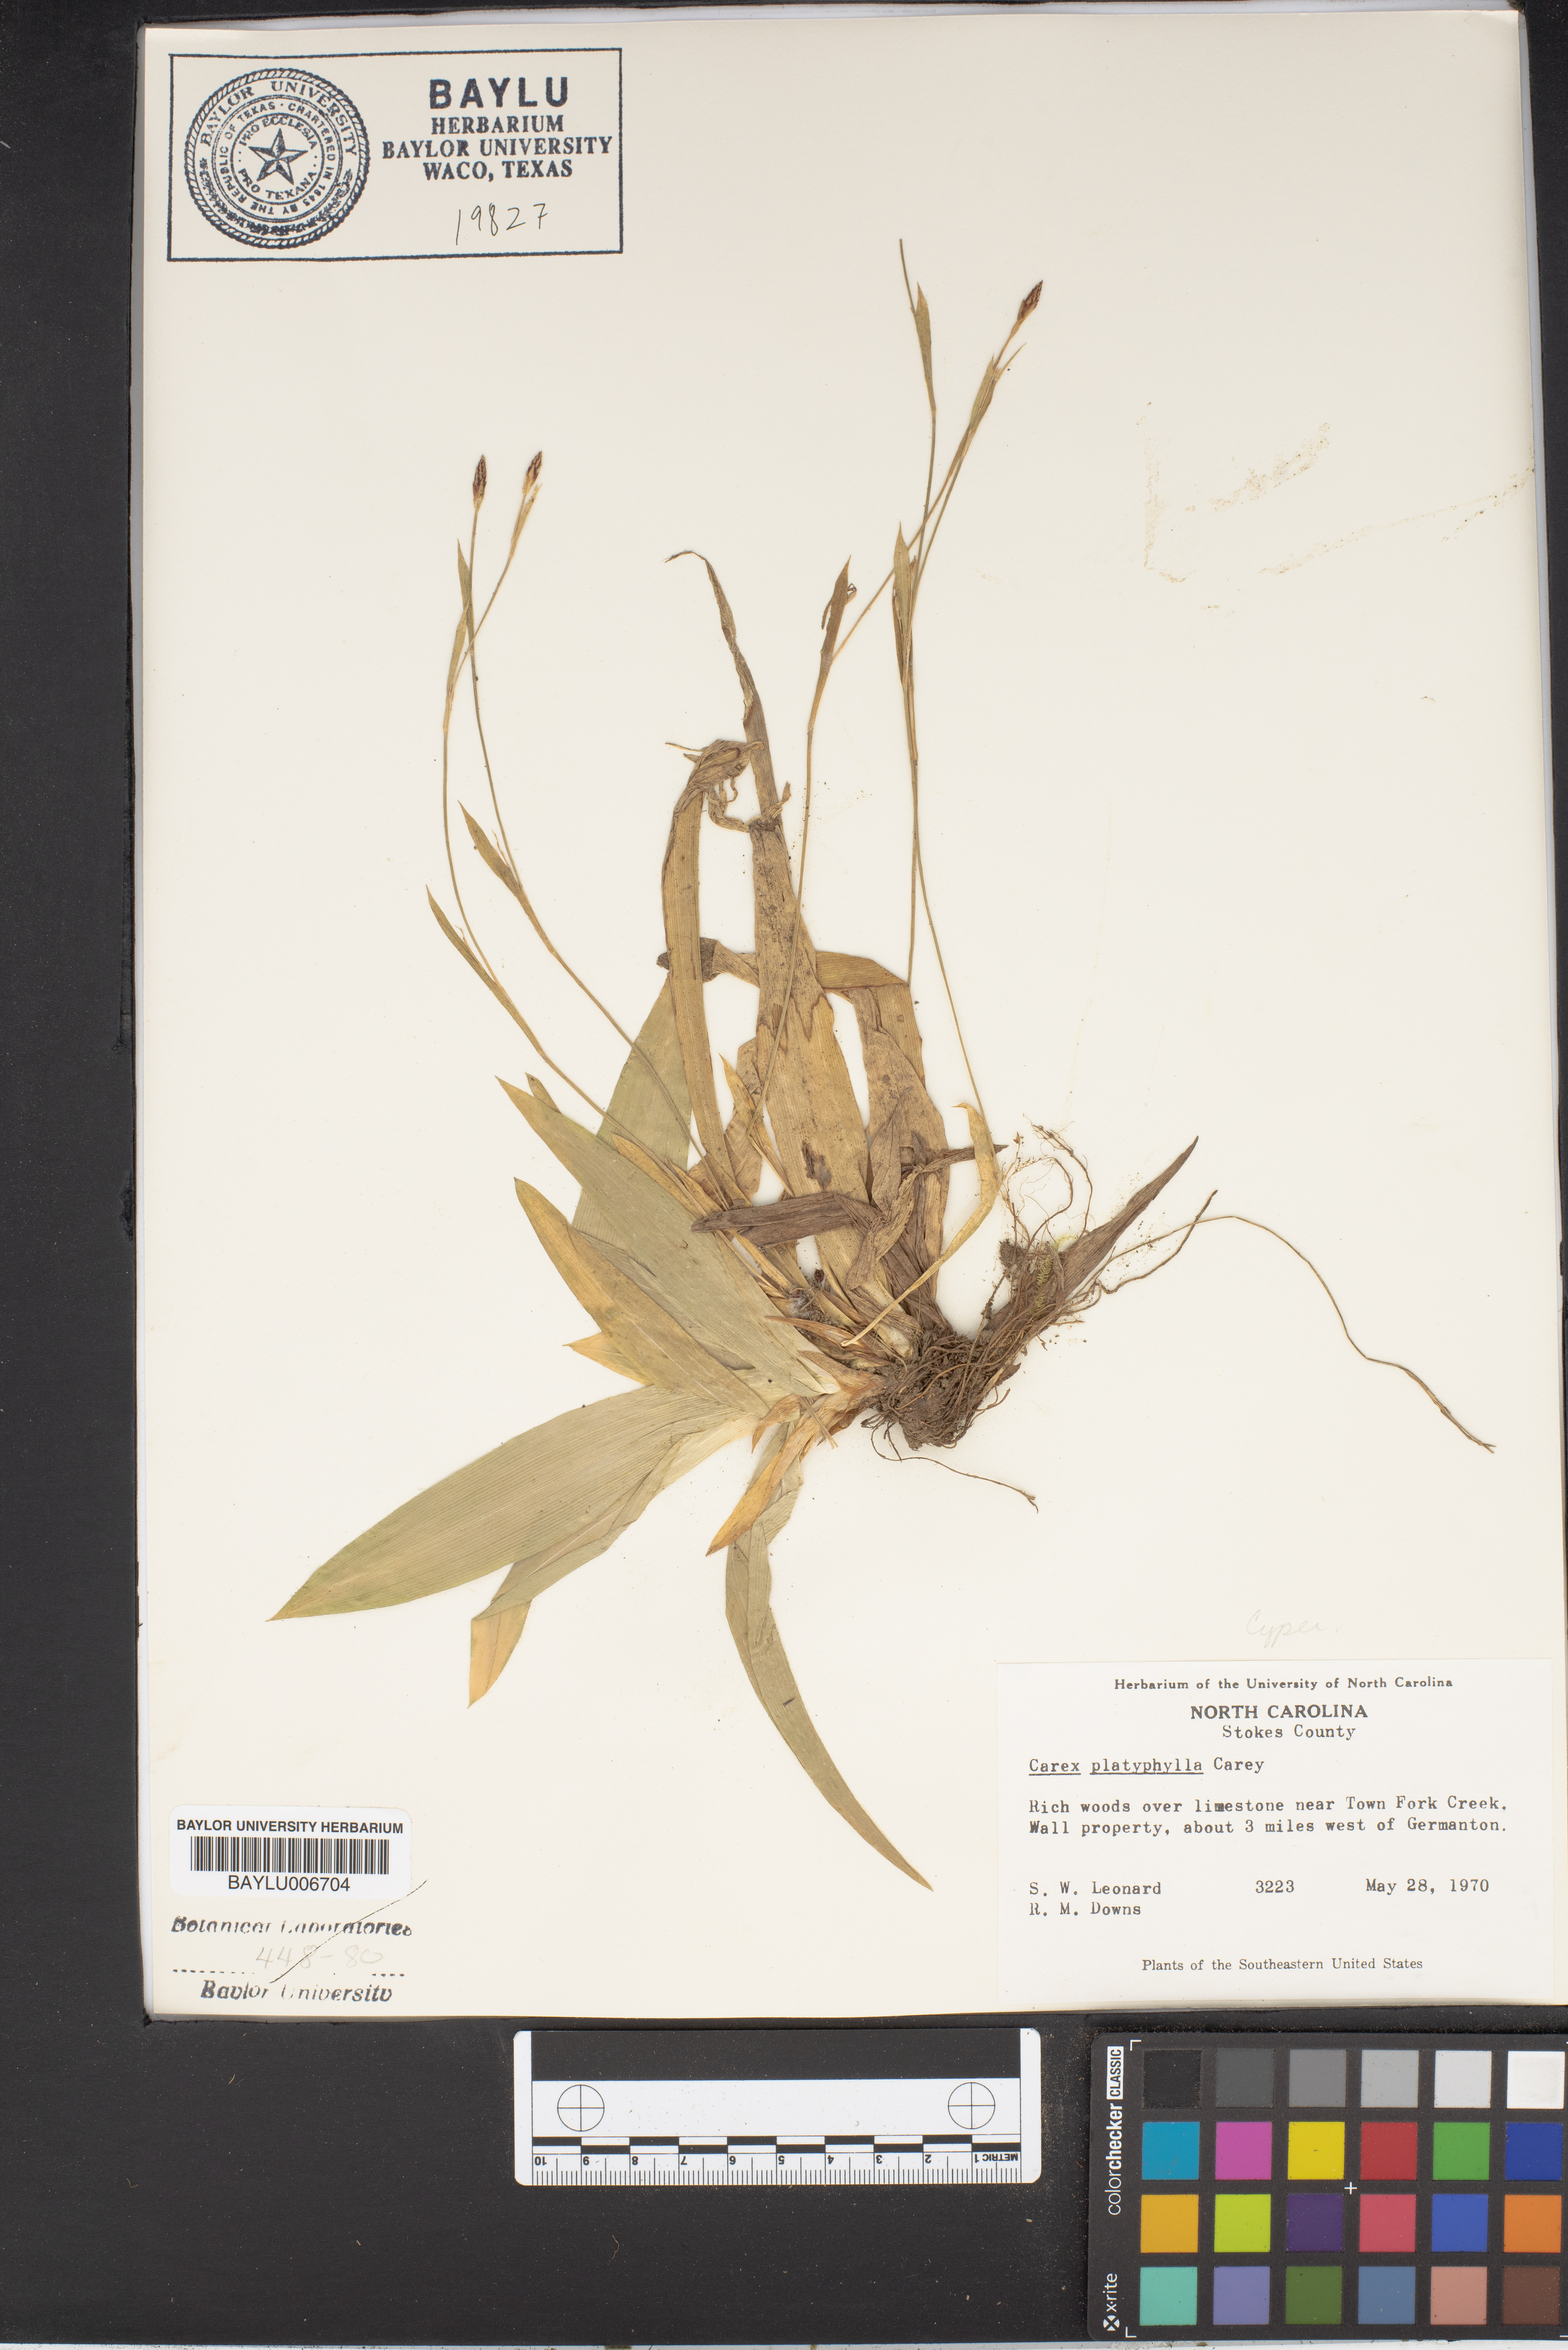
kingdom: Plantae
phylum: Tracheophyta
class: Liliopsida
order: Poales
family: Cyperaceae
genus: Carex
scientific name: Carex platyphylla
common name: Broad-leaved sedge
